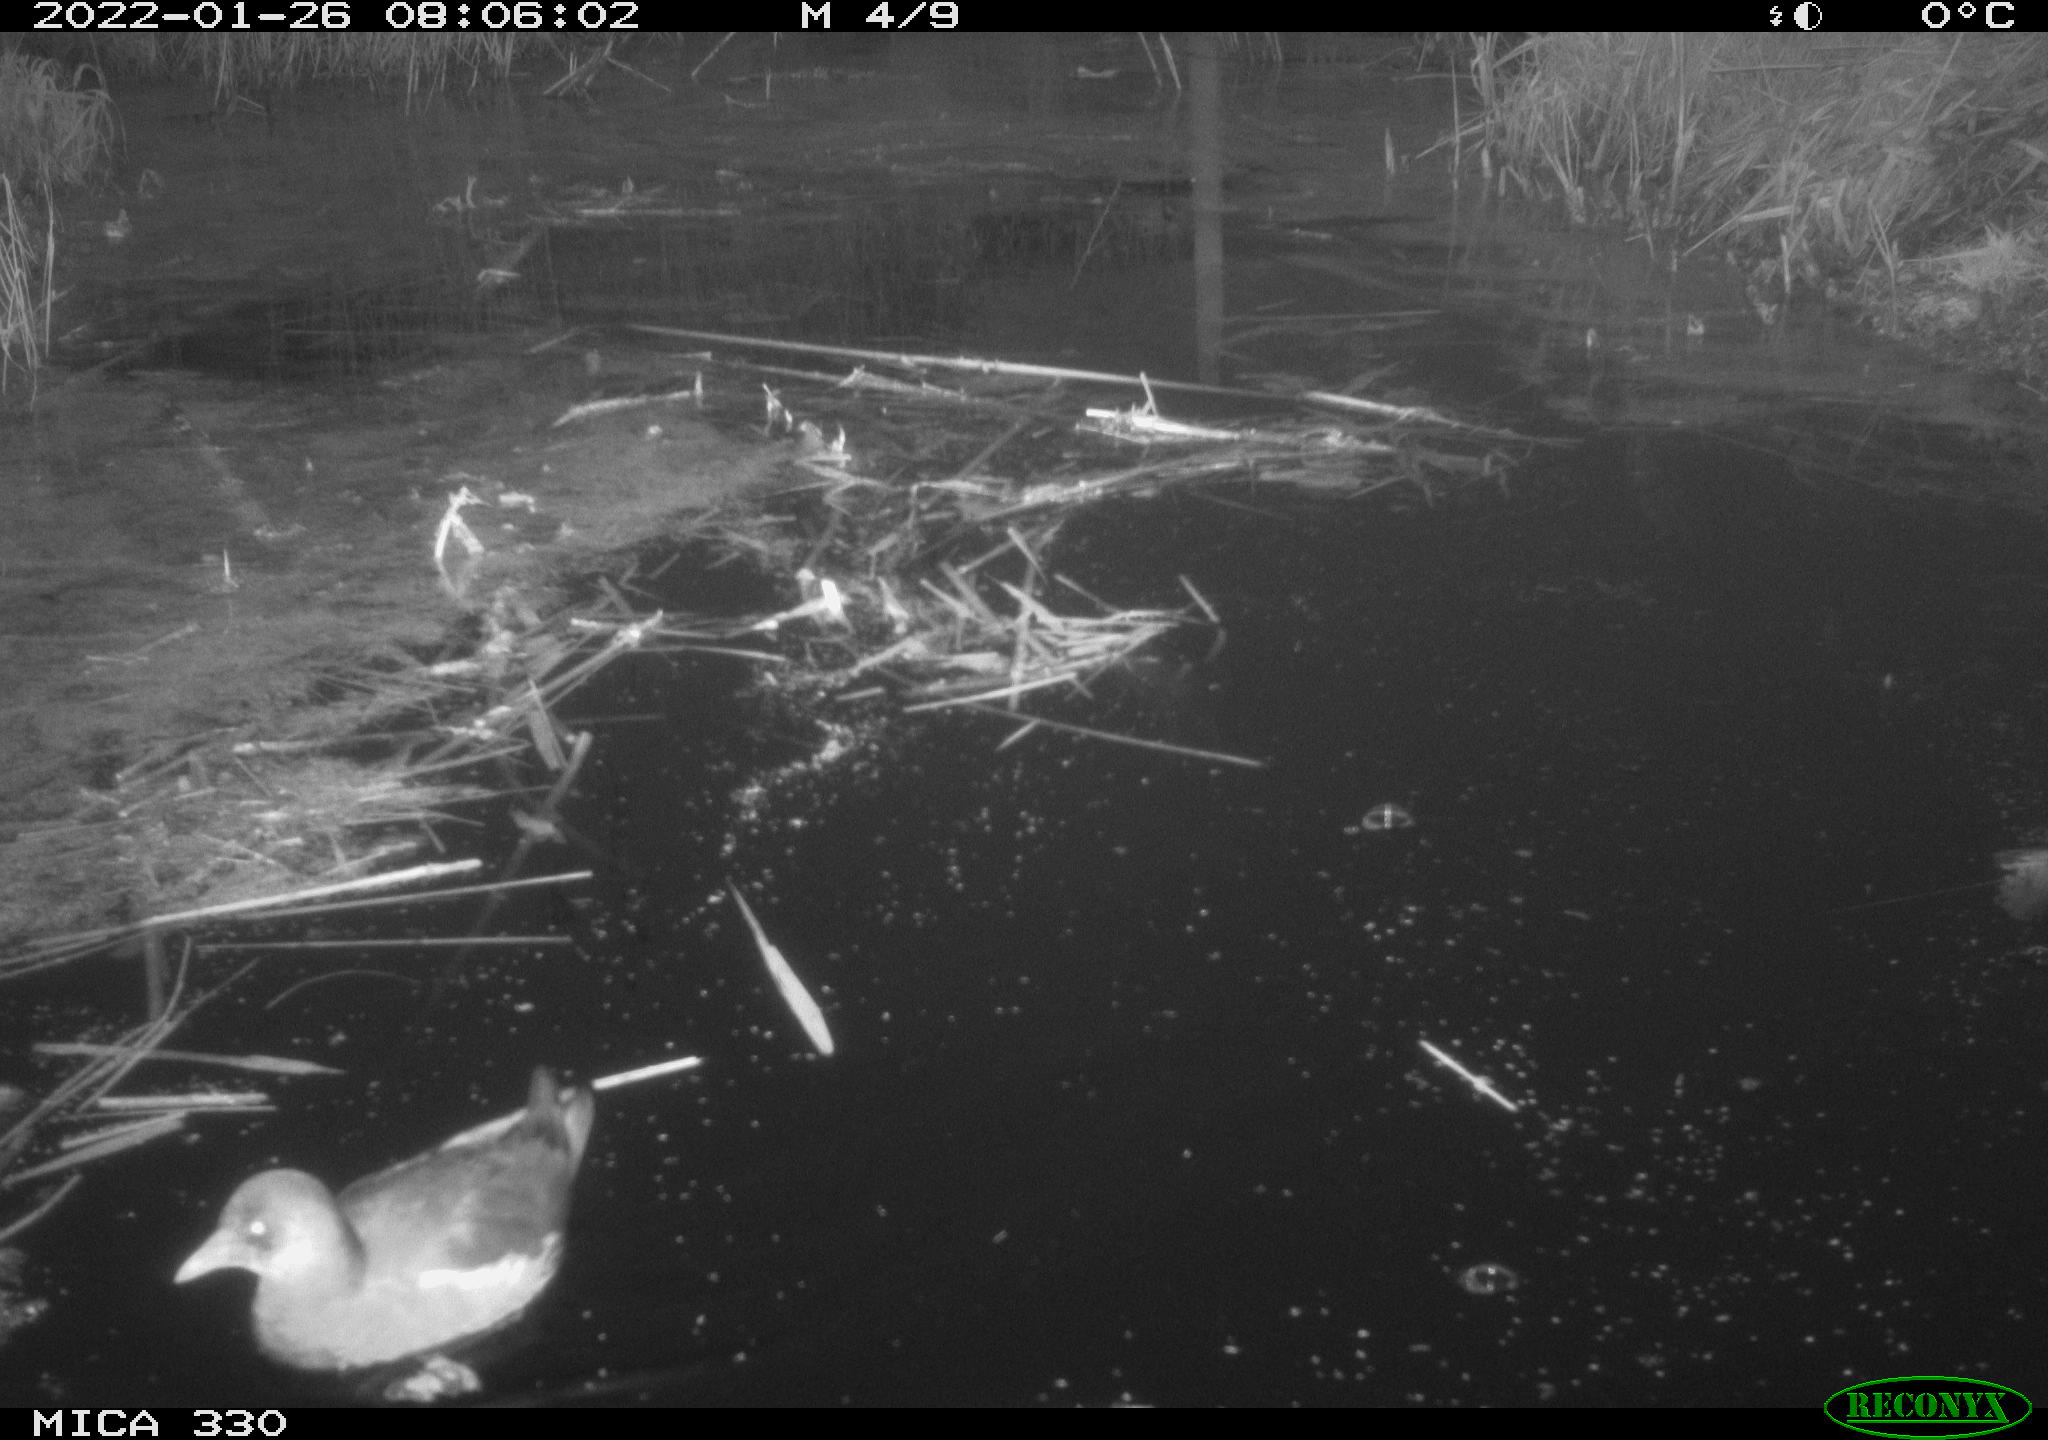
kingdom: Animalia
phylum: Chordata
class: Aves
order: Gruiformes
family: Rallidae
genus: Gallinula
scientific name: Gallinula chloropus
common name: Common moorhen
